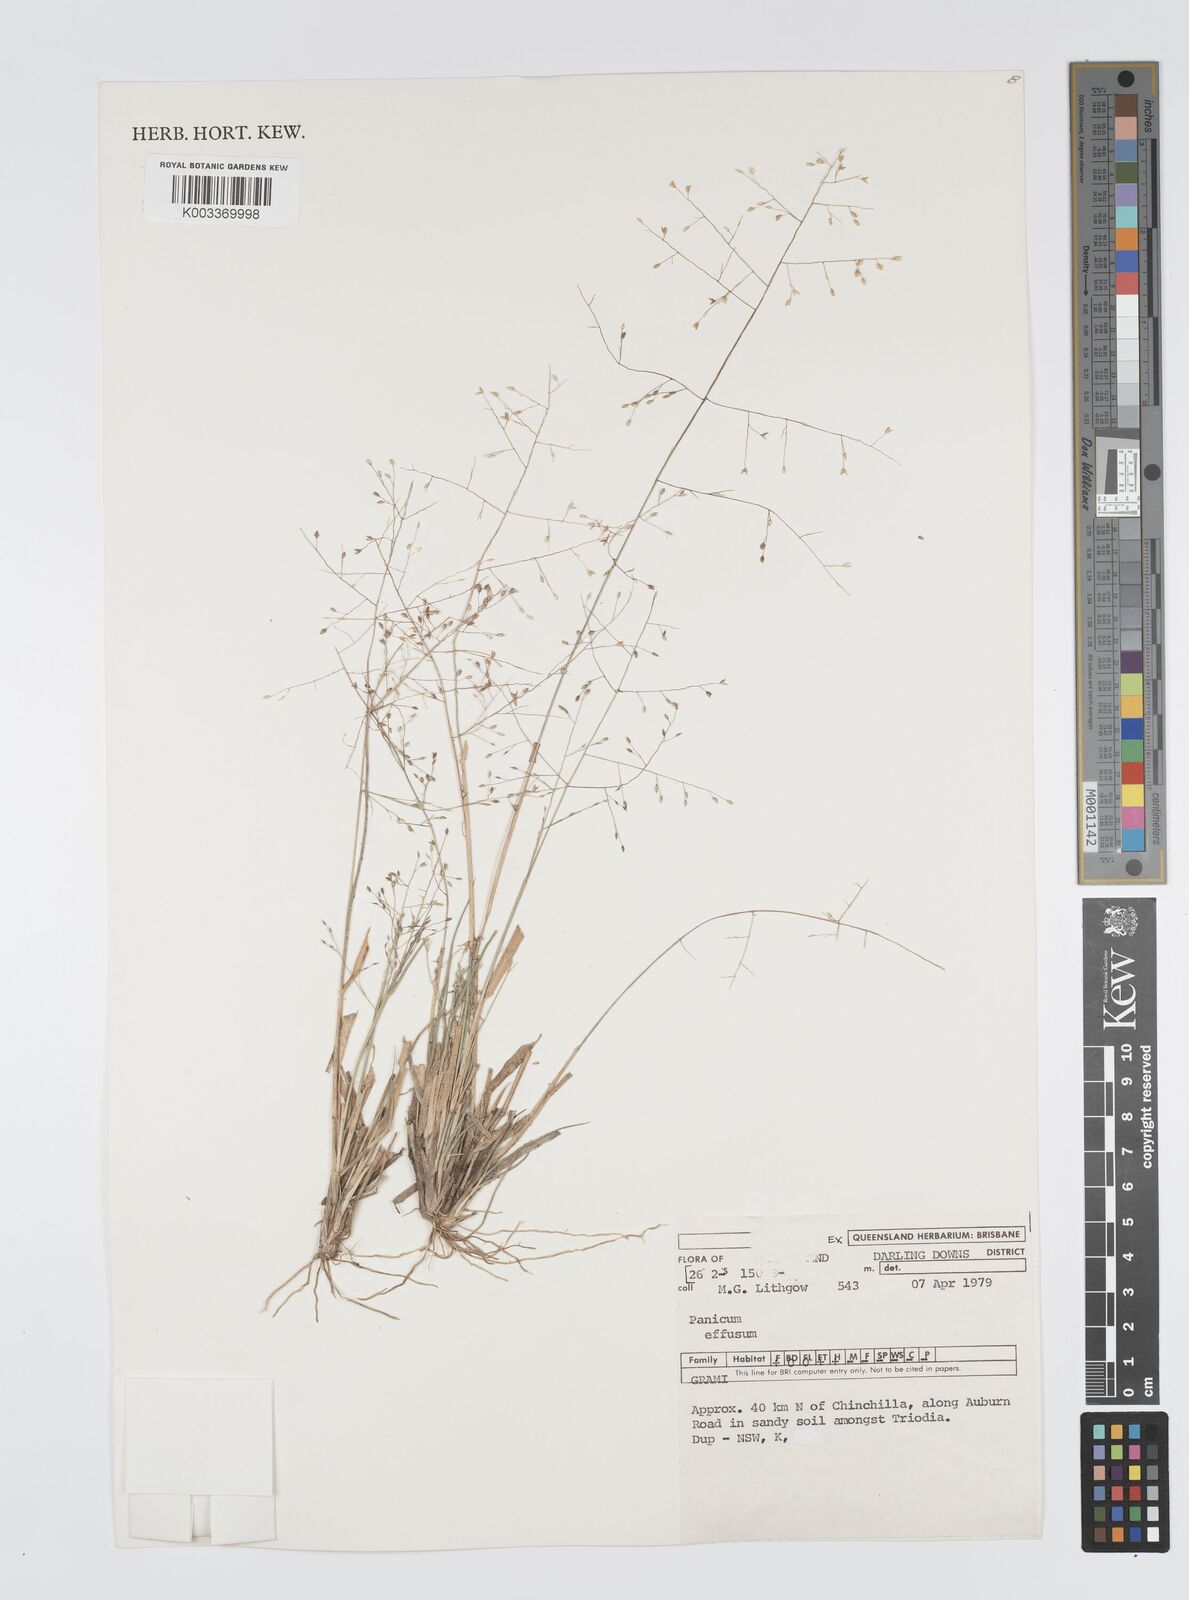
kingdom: Plantae
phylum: Tracheophyta
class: Liliopsida
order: Poales
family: Poaceae
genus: Panicum
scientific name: Panicum effusum
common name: Hairy panic grass
